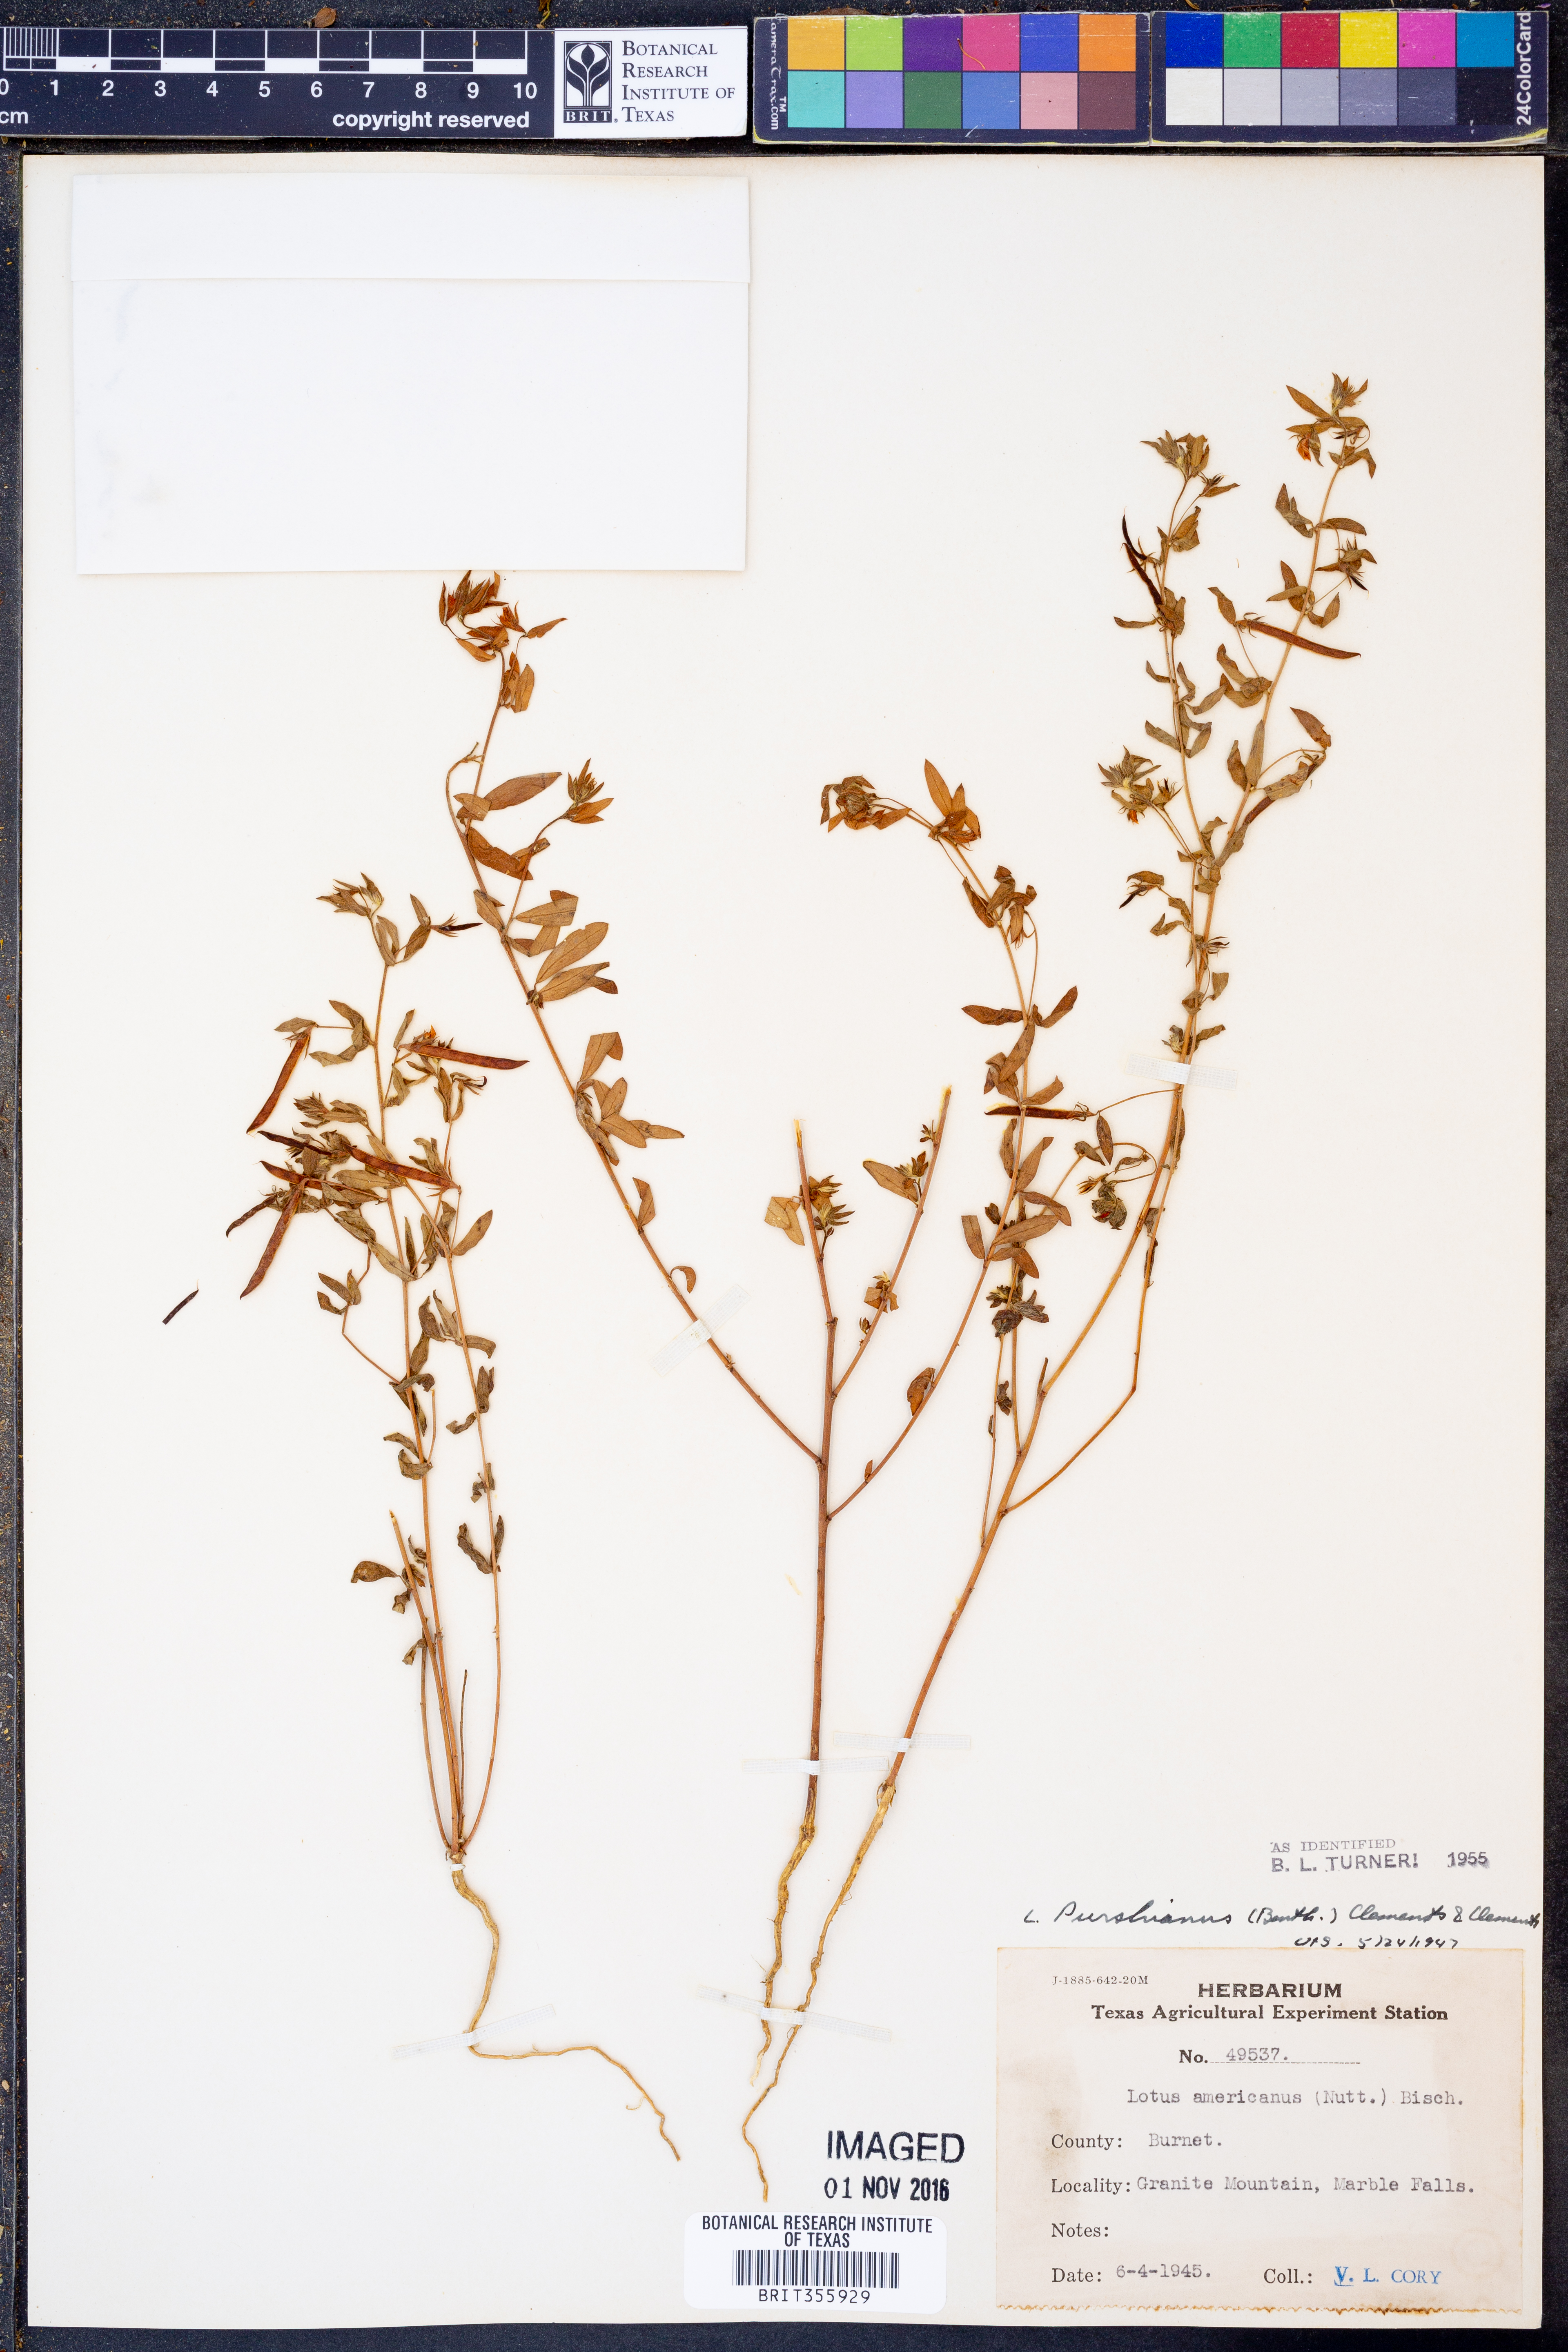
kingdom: Plantae
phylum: Tracheophyta
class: Magnoliopsida
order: Fabales
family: Fabaceae
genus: Acmispon
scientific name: Acmispon americanus
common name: American bird's-foot trefoil
